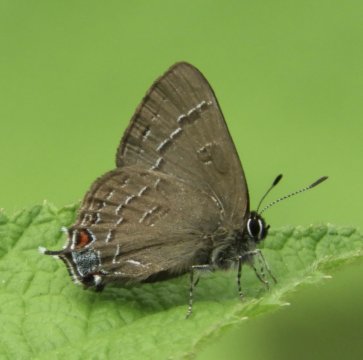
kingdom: Animalia
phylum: Arthropoda
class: Insecta
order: Lepidoptera
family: Lycaenidae
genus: Satyrium
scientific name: Satyrium calanus
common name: Banded Hairstreak
